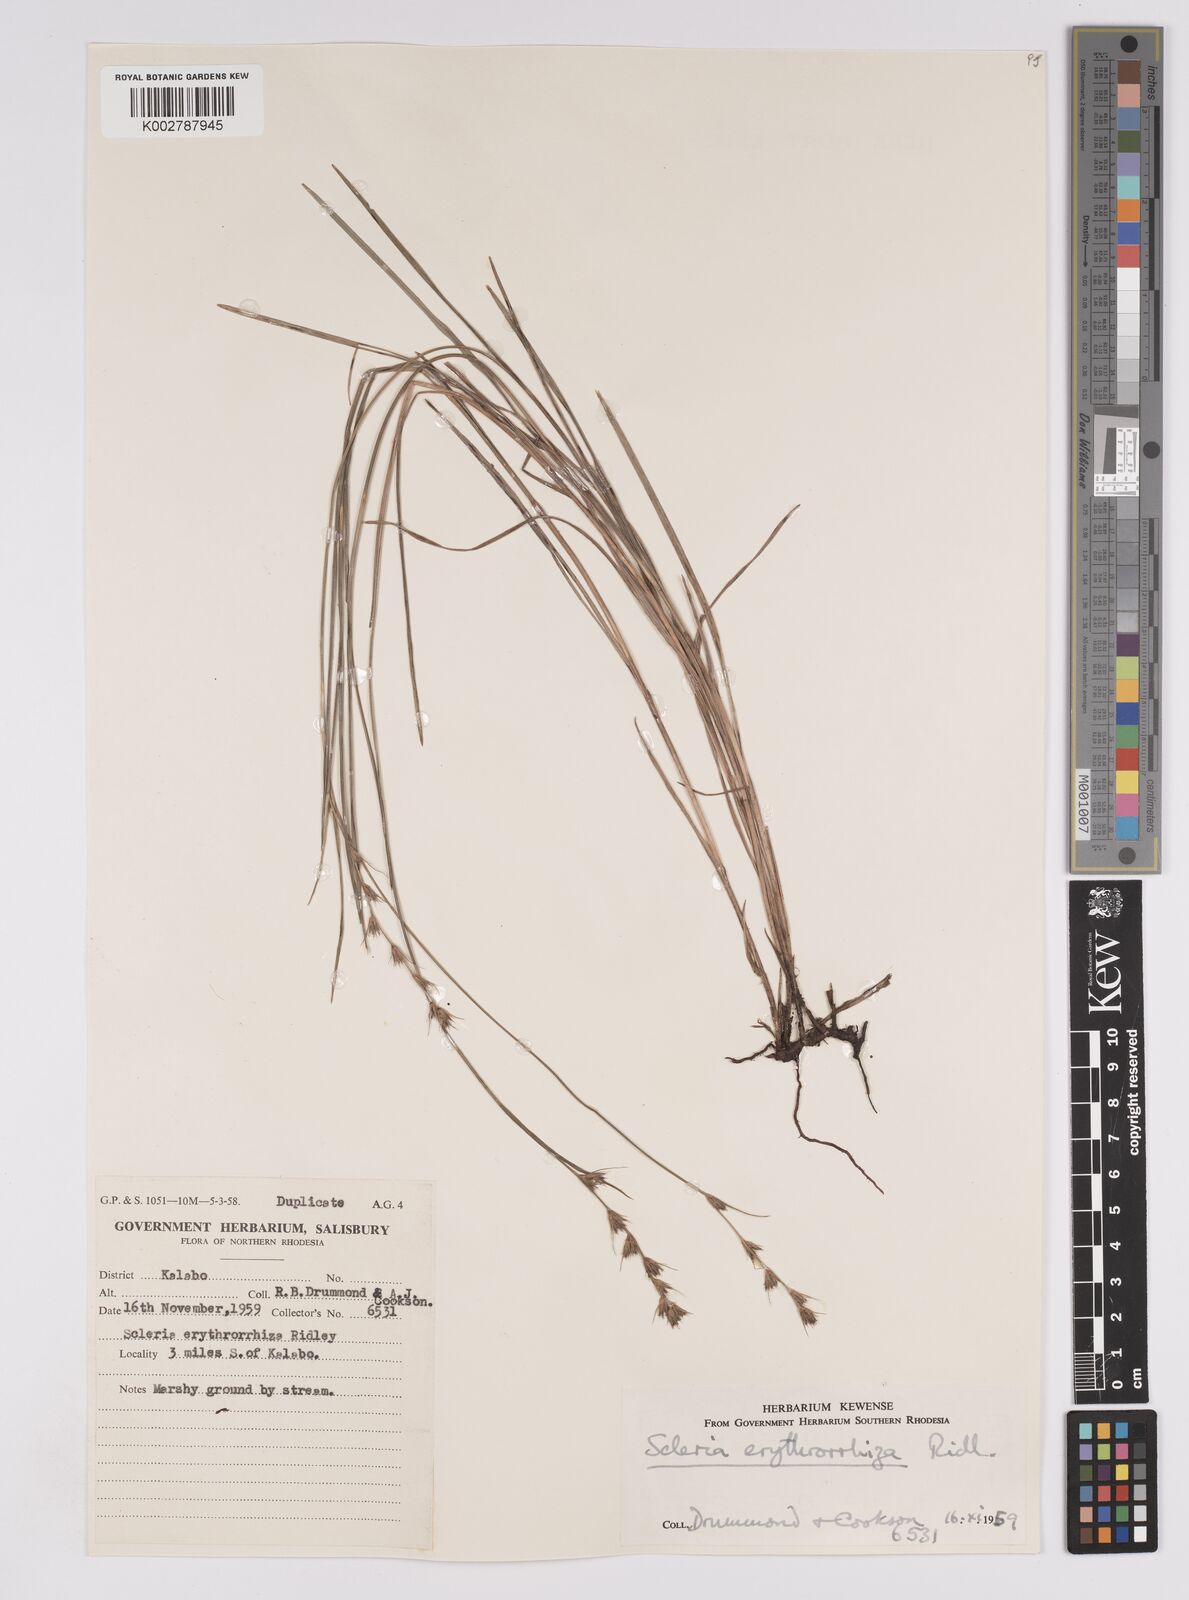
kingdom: Plantae
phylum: Tracheophyta
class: Liliopsida
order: Poales
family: Cyperaceae
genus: Scleria
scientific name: Scleria erythrorrhiza
